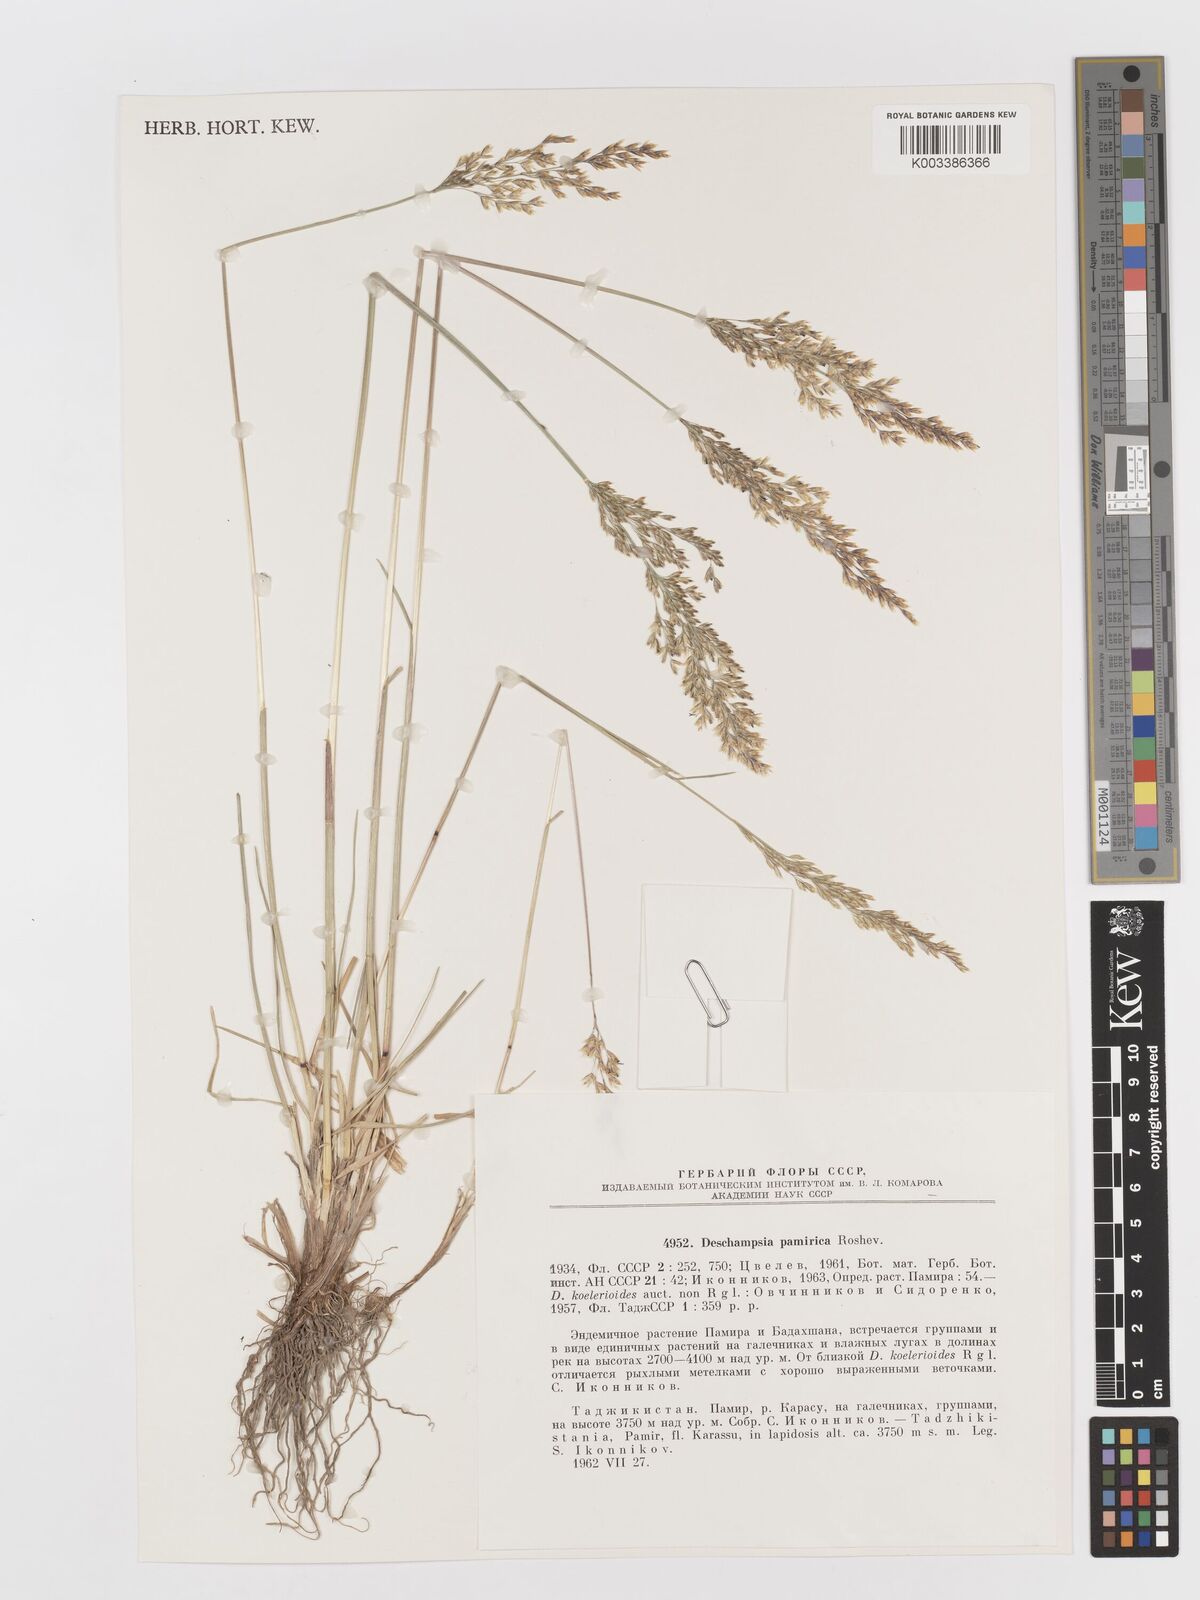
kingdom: Plantae
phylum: Tracheophyta
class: Liliopsida
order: Poales
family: Poaceae
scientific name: Poaceae
